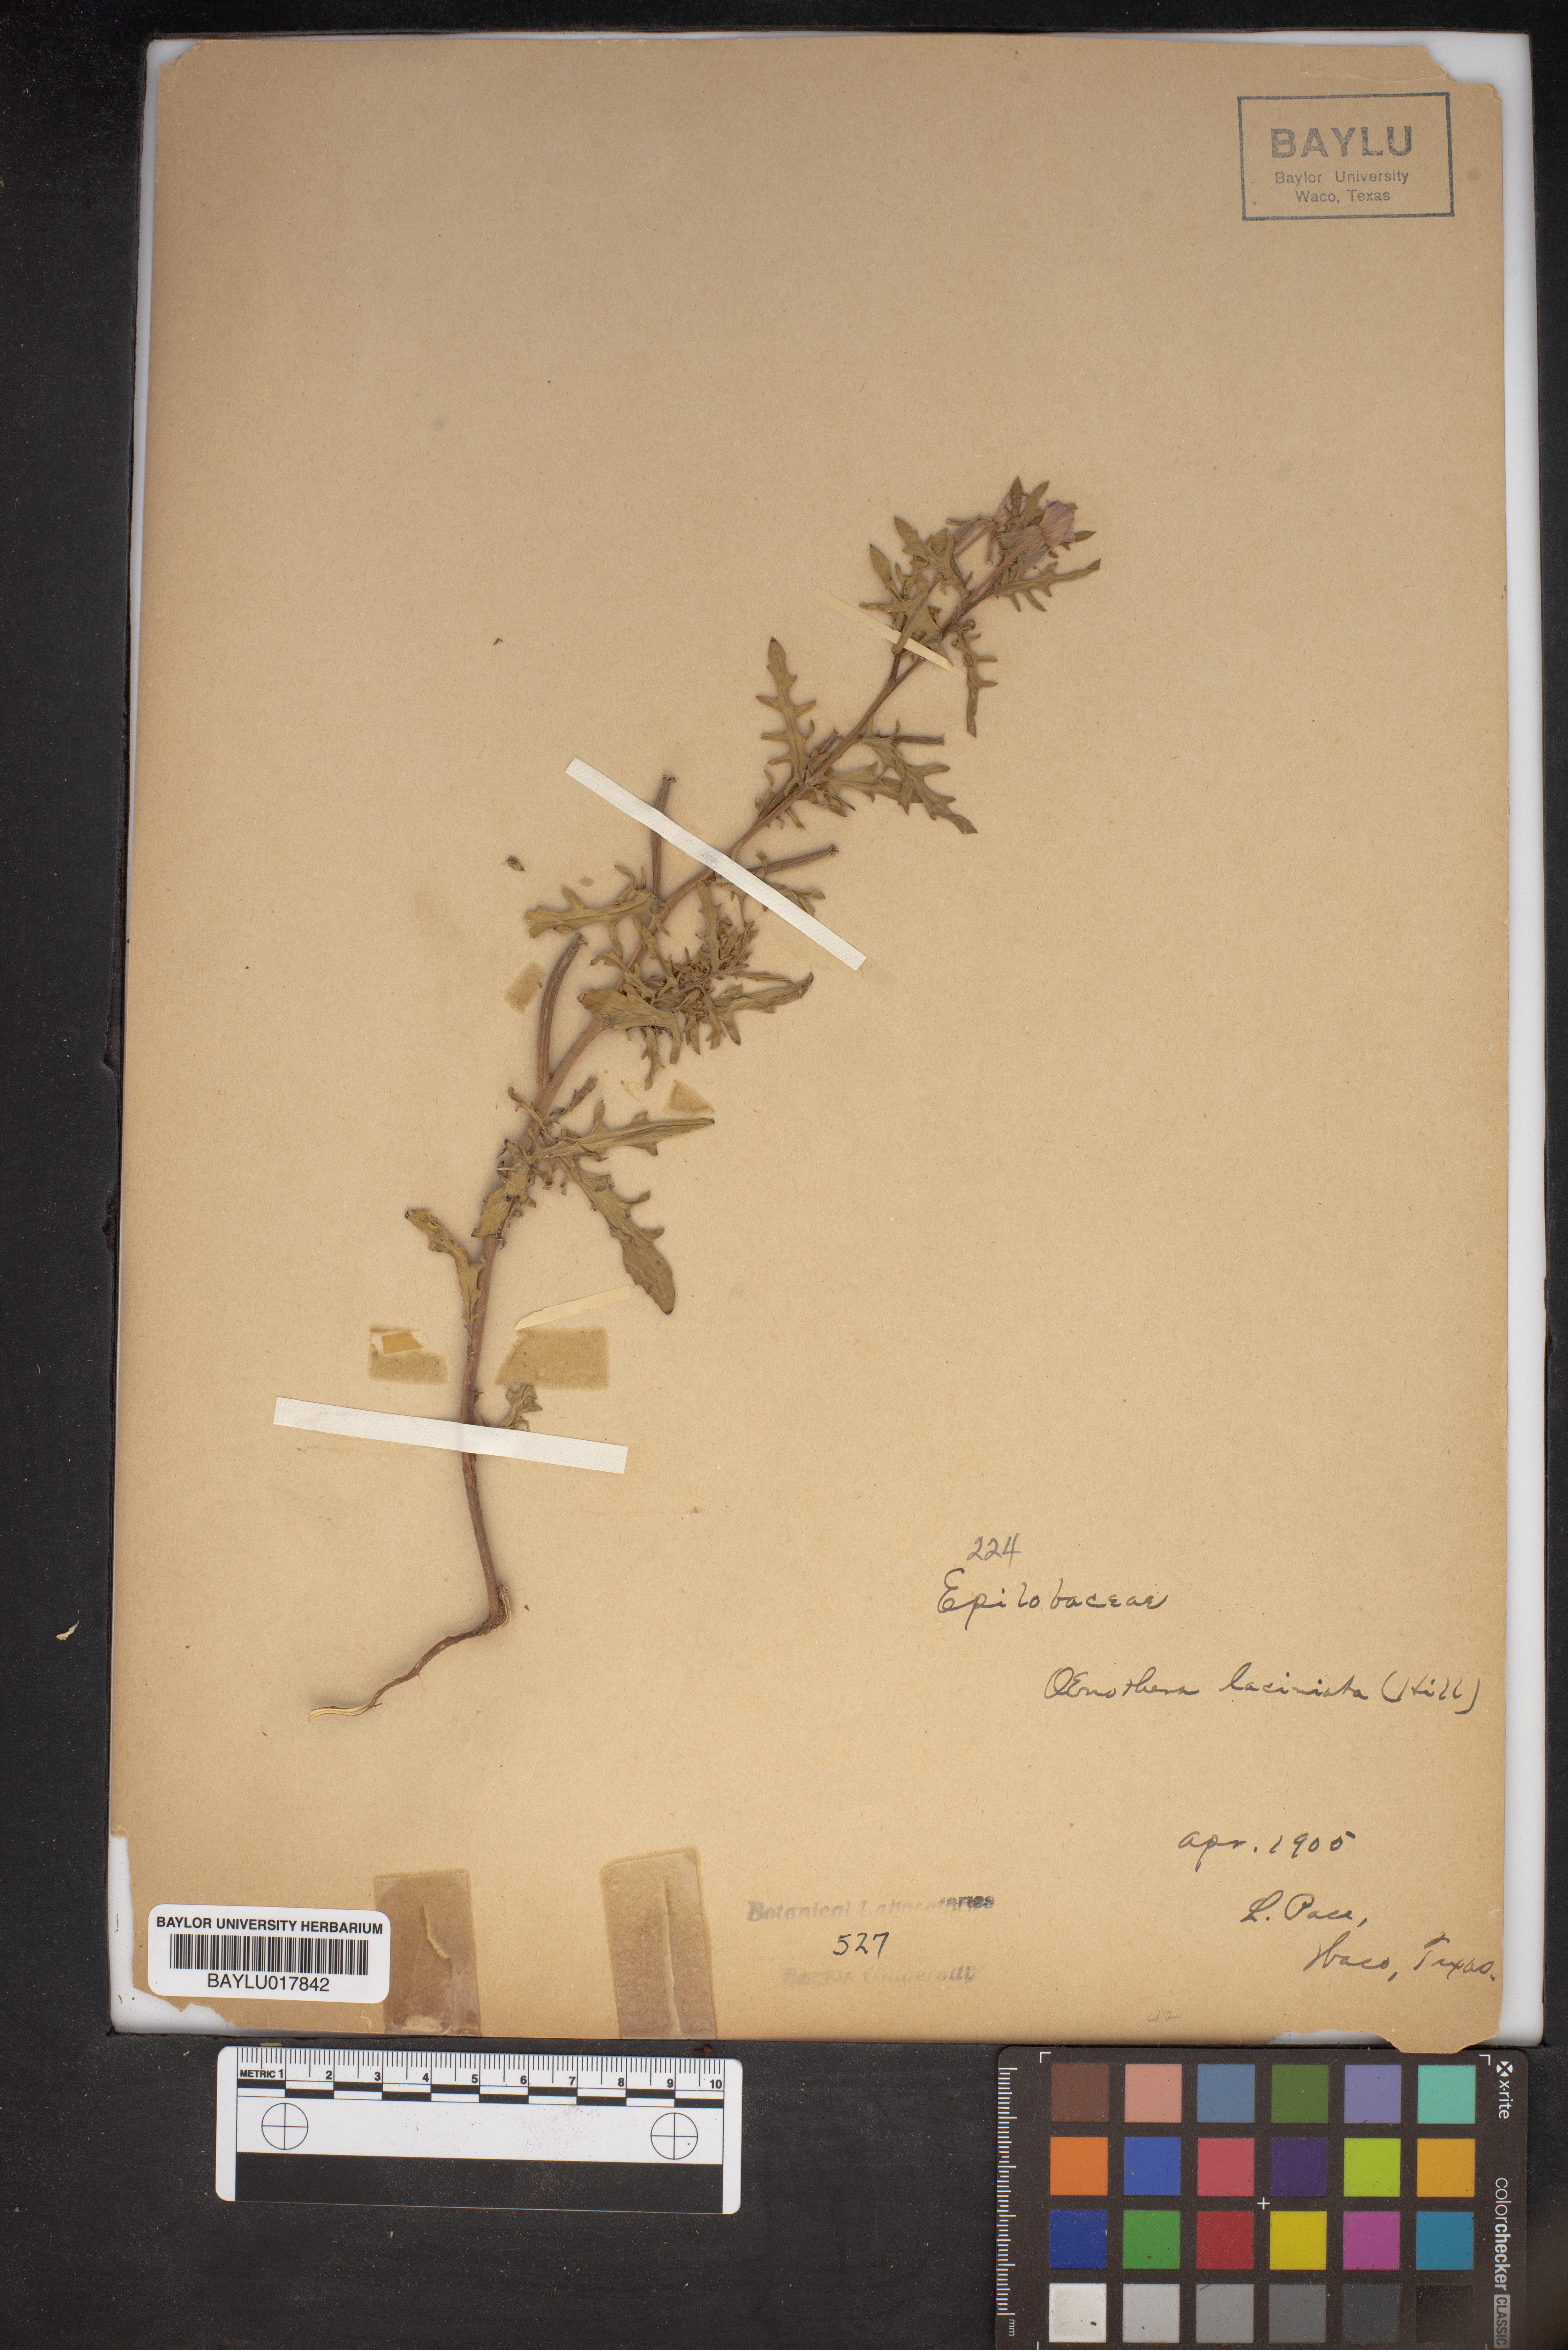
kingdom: Plantae
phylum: Tracheophyta
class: Magnoliopsida
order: Myrtales
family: Onagraceae
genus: Oenothera
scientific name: Oenothera laciniata
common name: Cut-leaved evening-primrose
